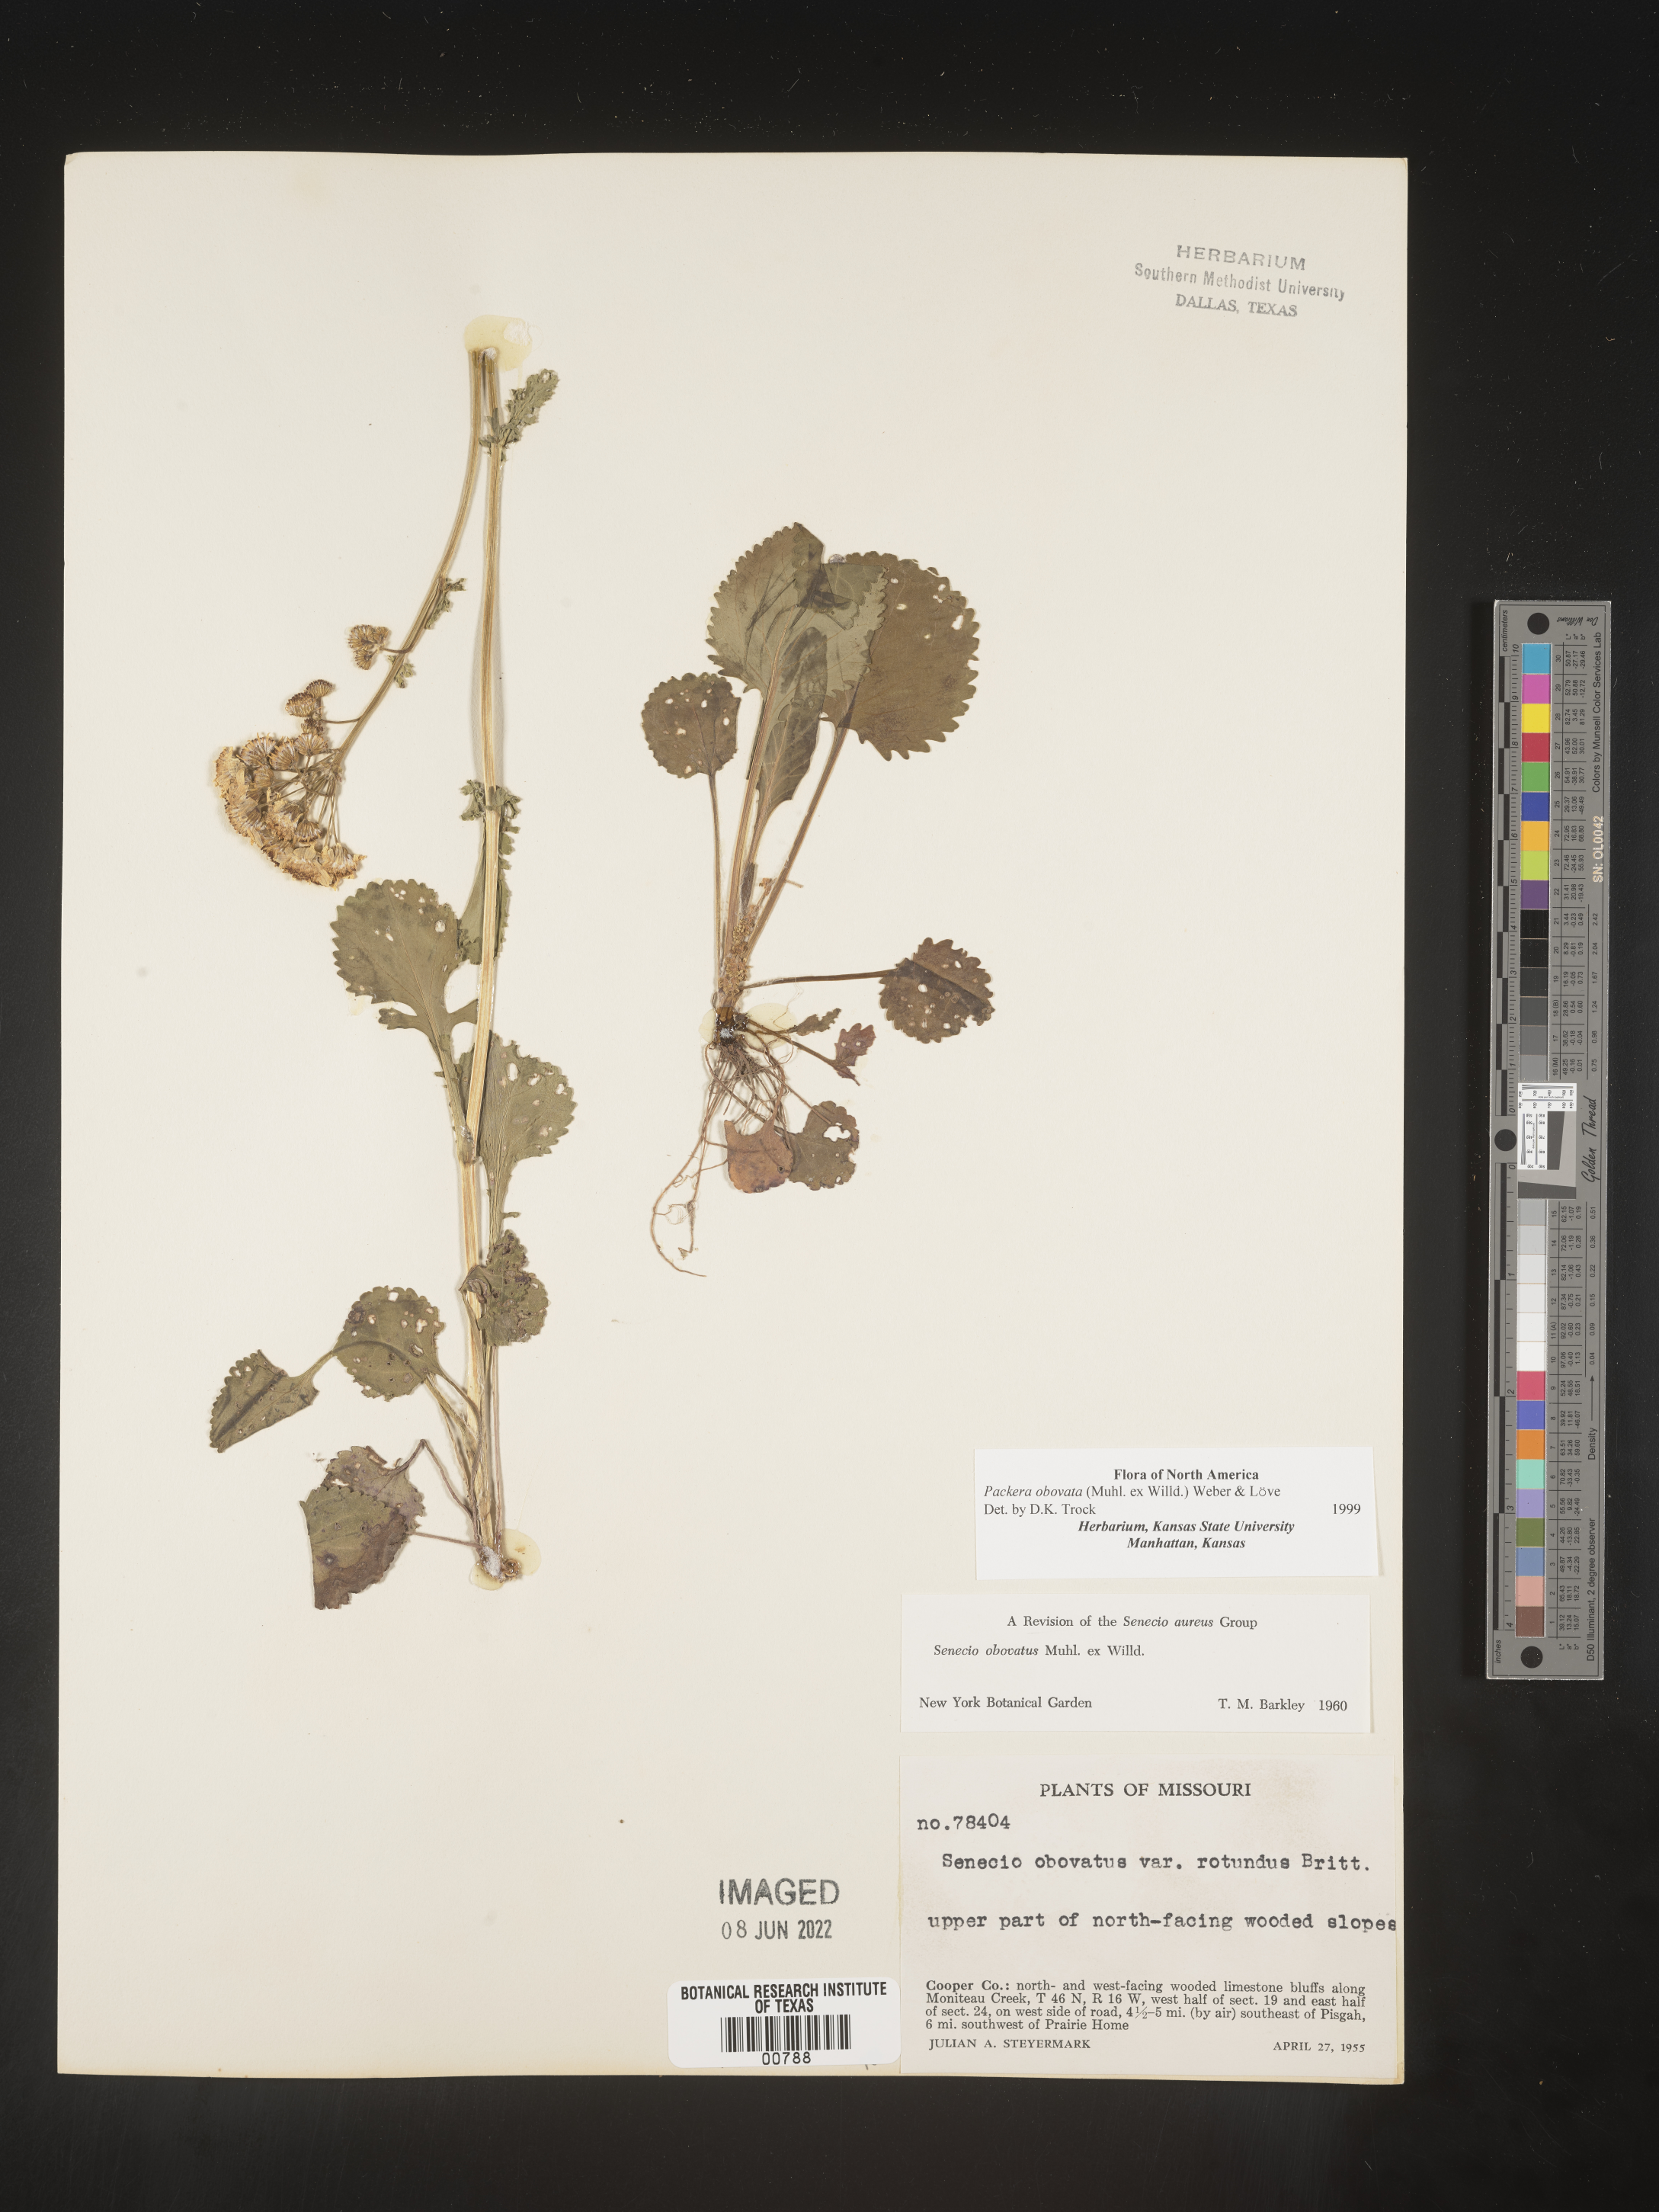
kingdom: Plantae
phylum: Tracheophyta
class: Magnoliopsida
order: Asterales
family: Asteraceae
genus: Packera
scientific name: Packera obovata
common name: Round-leaf ragwort
